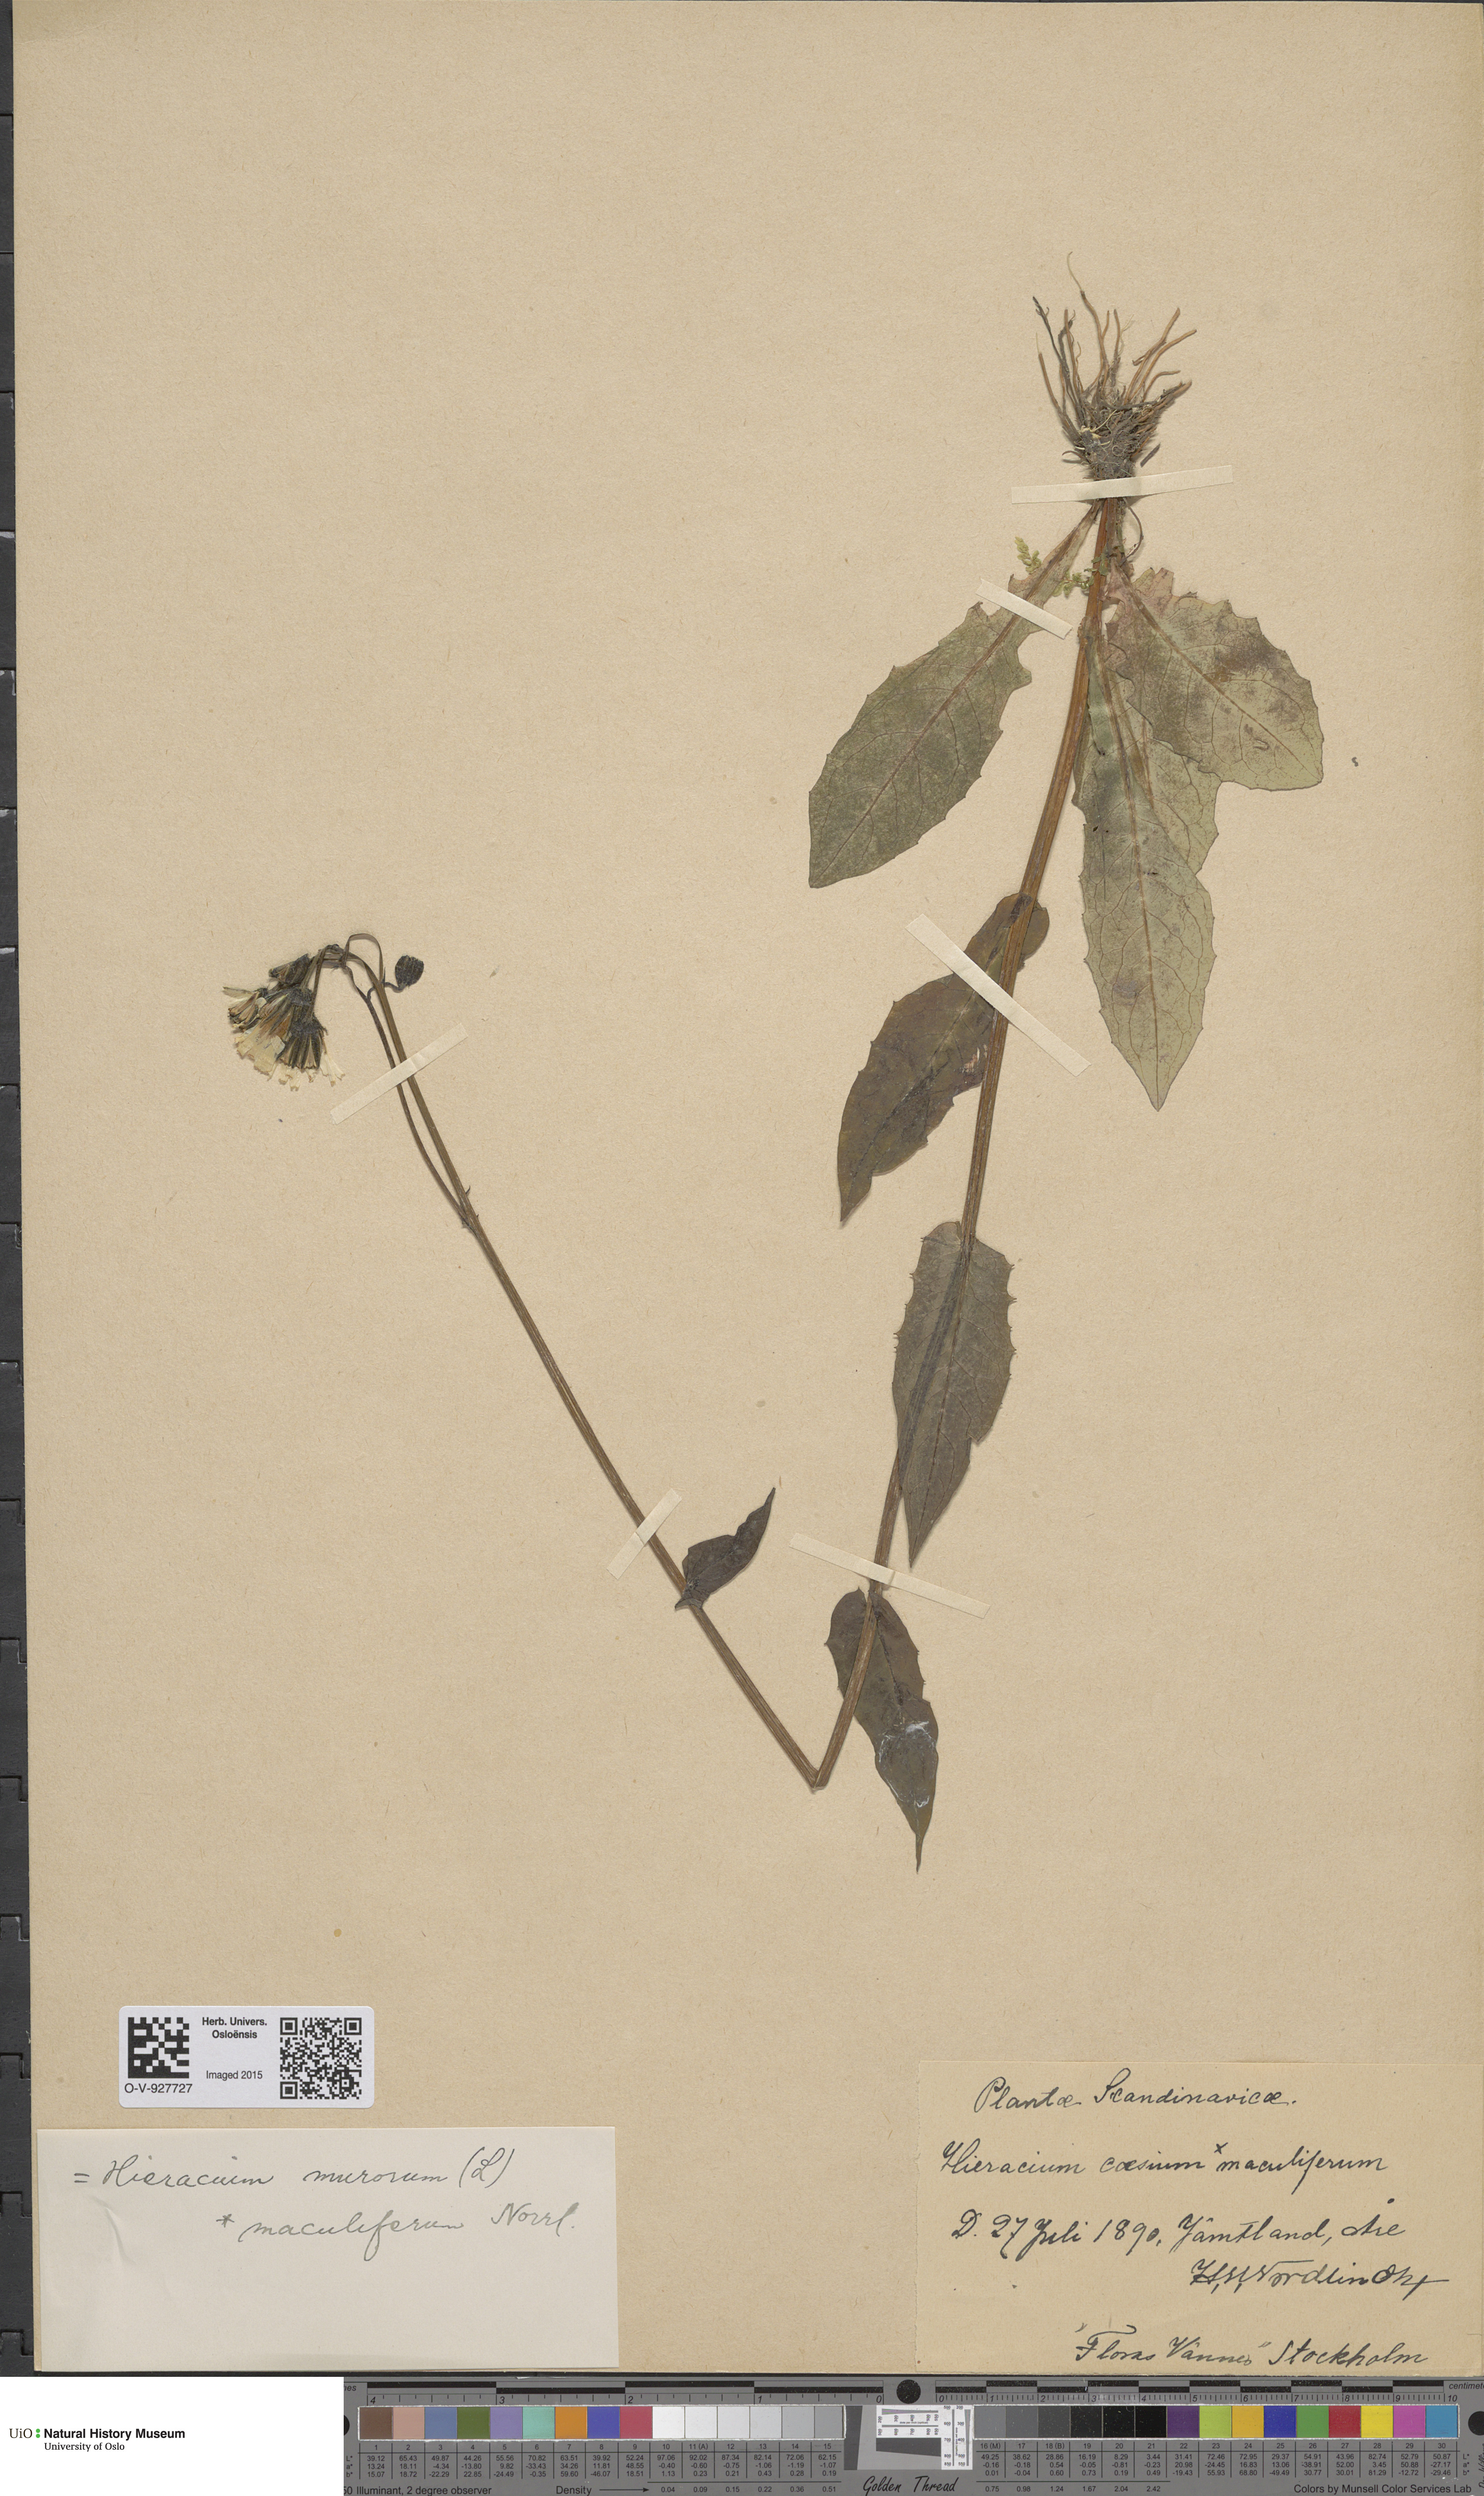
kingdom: Plantae
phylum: Tracheophyta
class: Magnoliopsida
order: Asterales
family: Asteraceae
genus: Hieracium
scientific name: Hieracium caesium
